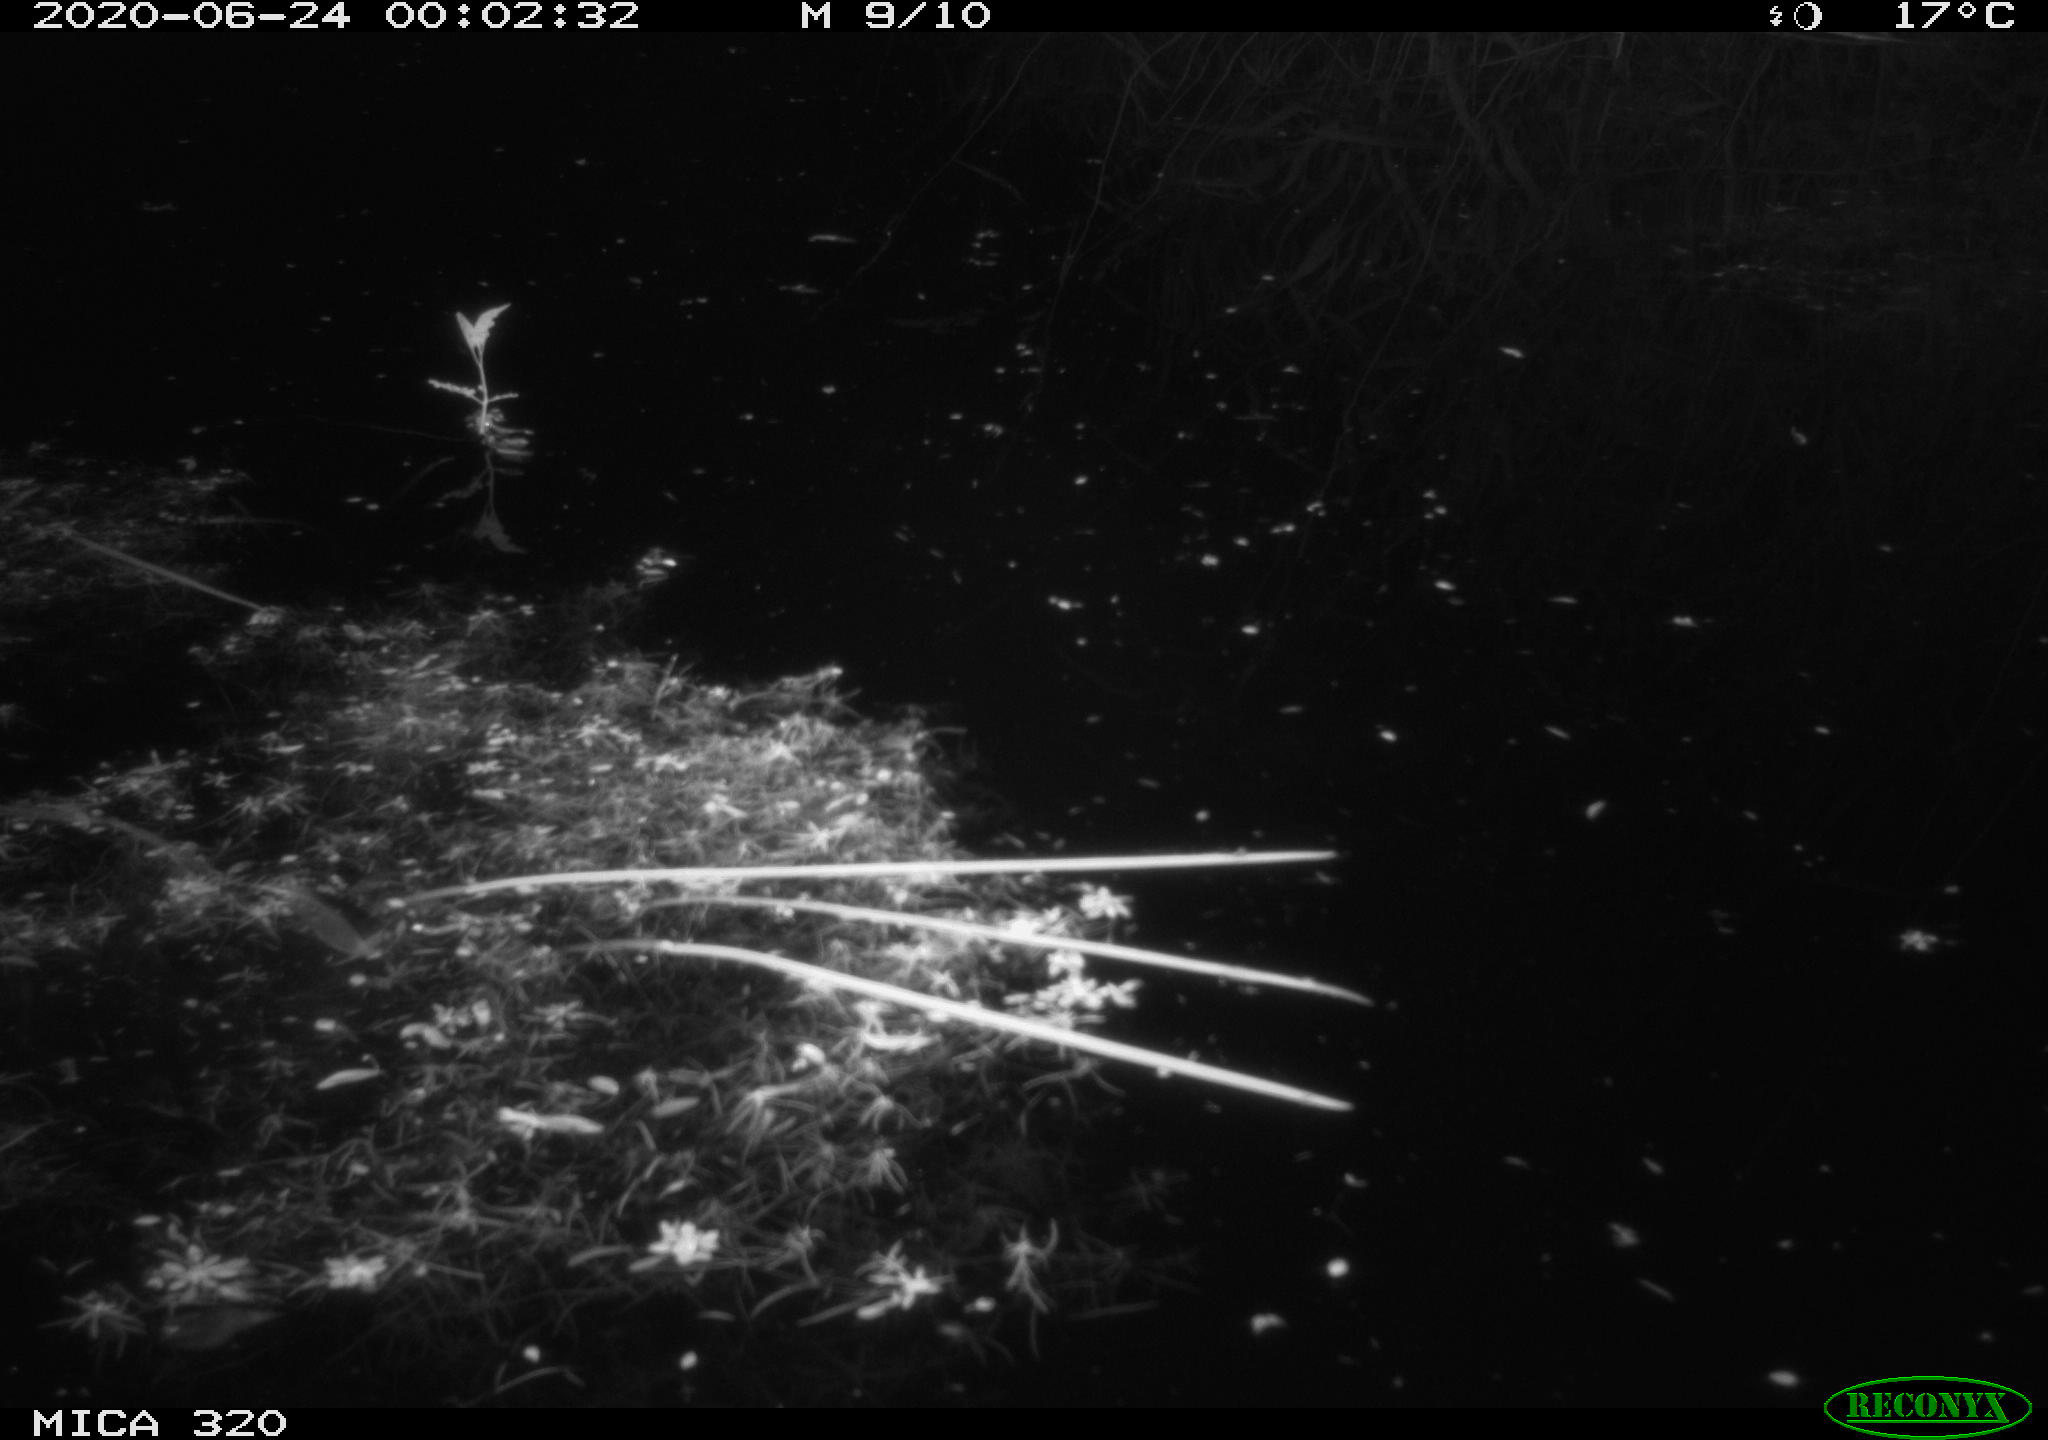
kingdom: Animalia
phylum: Chordata
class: Aves
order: Anseriformes
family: Anatidae
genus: Anas
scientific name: Anas platyrhynchos
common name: Mallard
